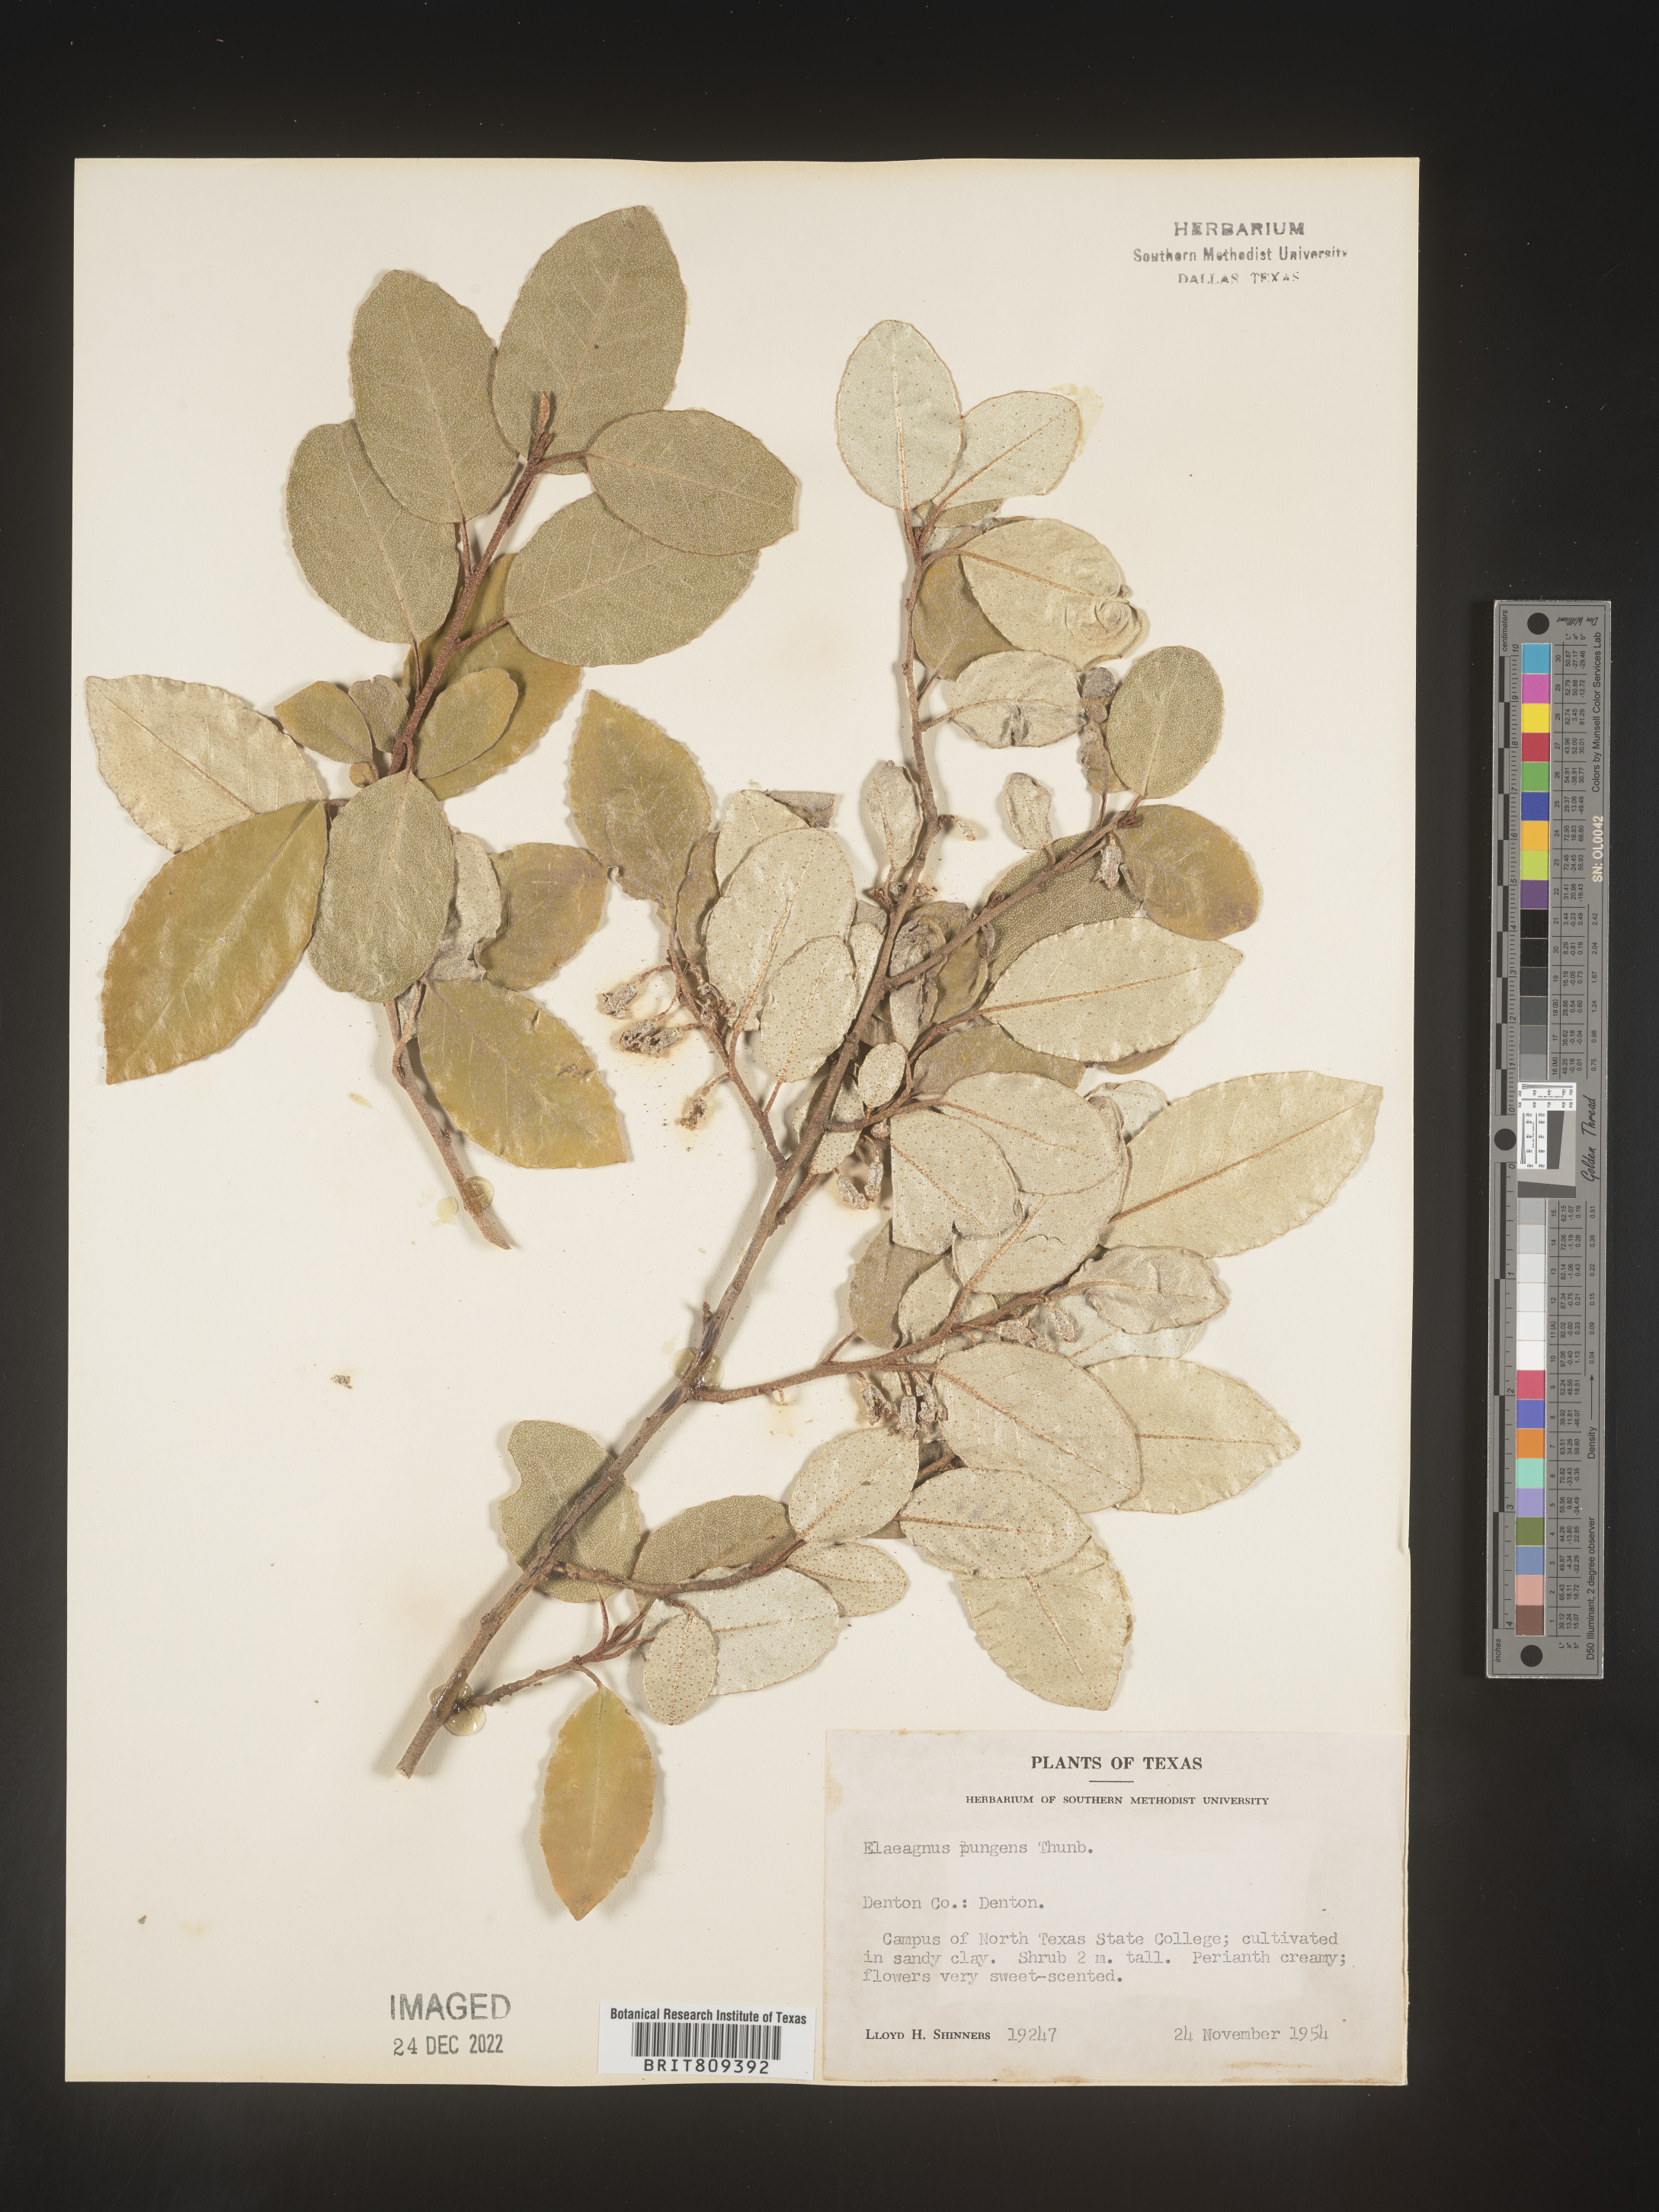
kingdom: Plantae
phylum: Tracheophyta
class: Magnoliopsida
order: Rosales
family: Elaeagnaceae
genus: Elaeagnus
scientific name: Elaeagnus
